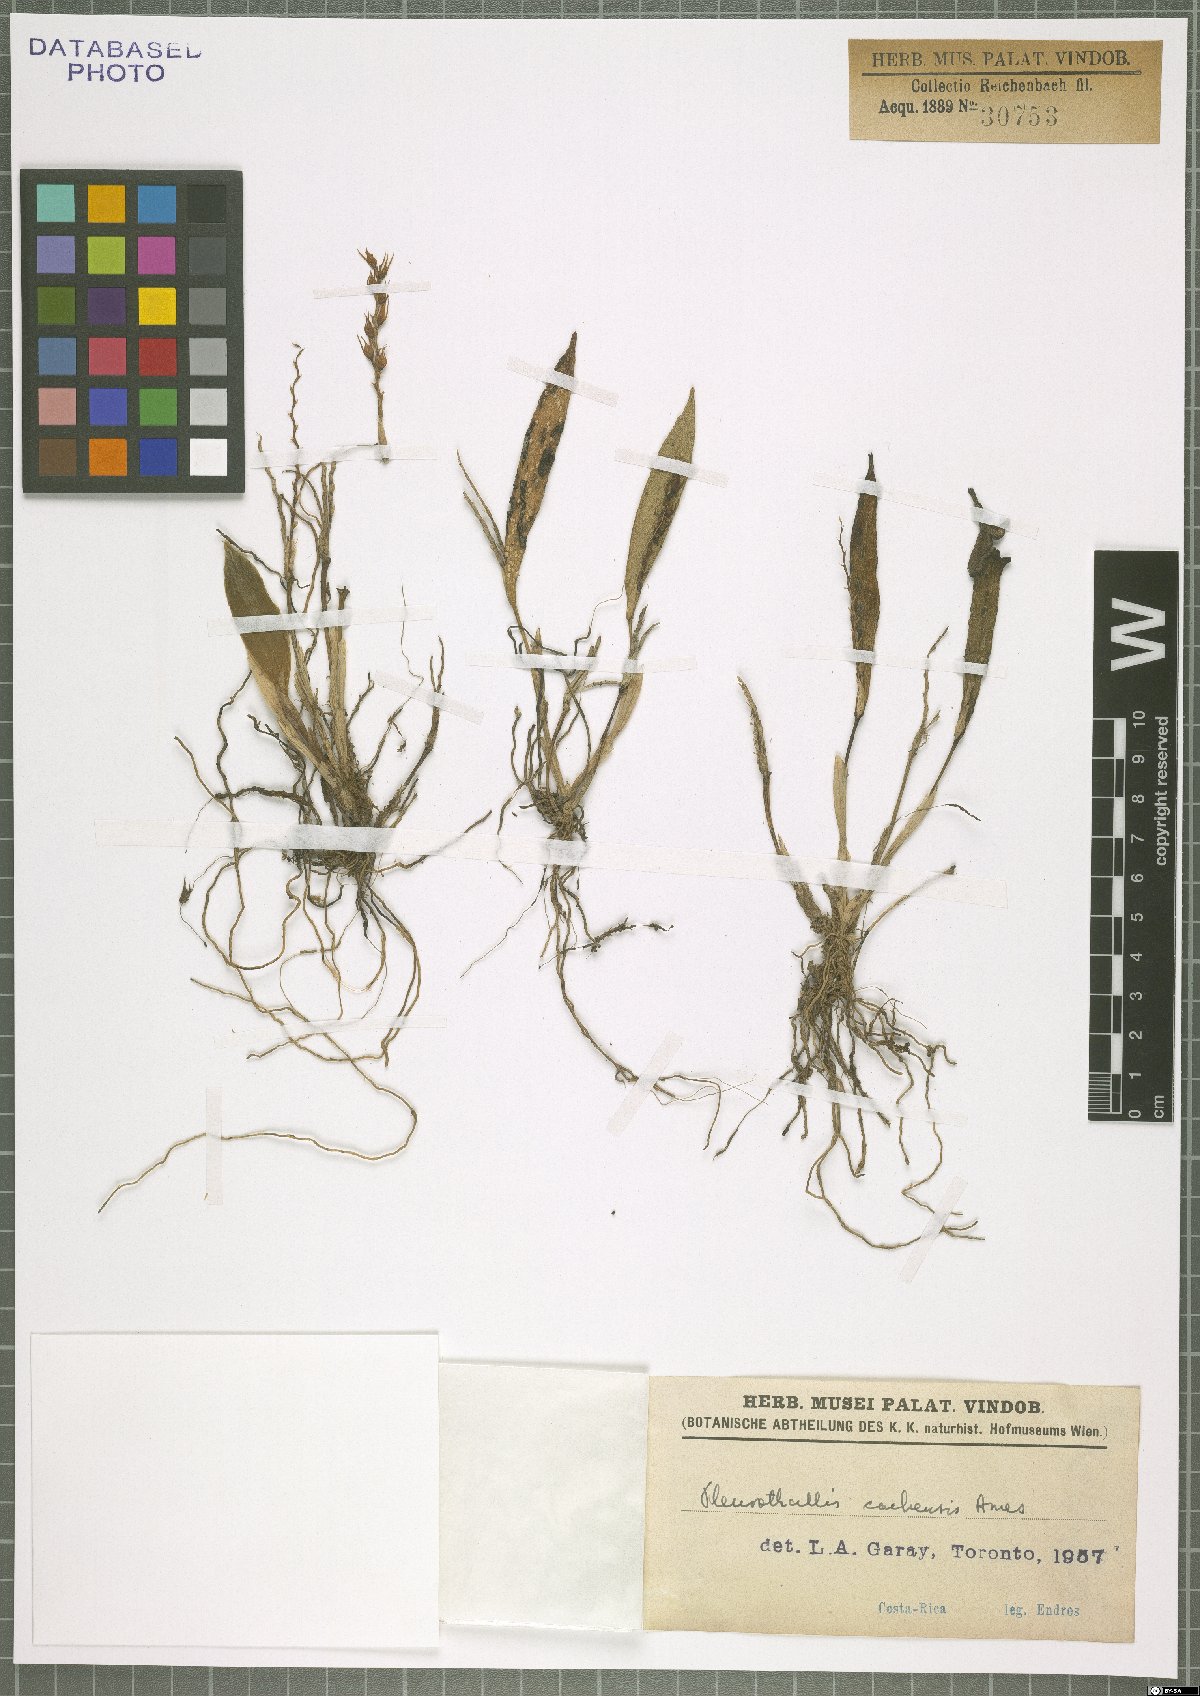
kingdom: Plantae
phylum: Tracheophyta
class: Liliopsida
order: Asparagales
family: Orchidaceae
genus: Acianthera
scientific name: Acianthera cachensis
